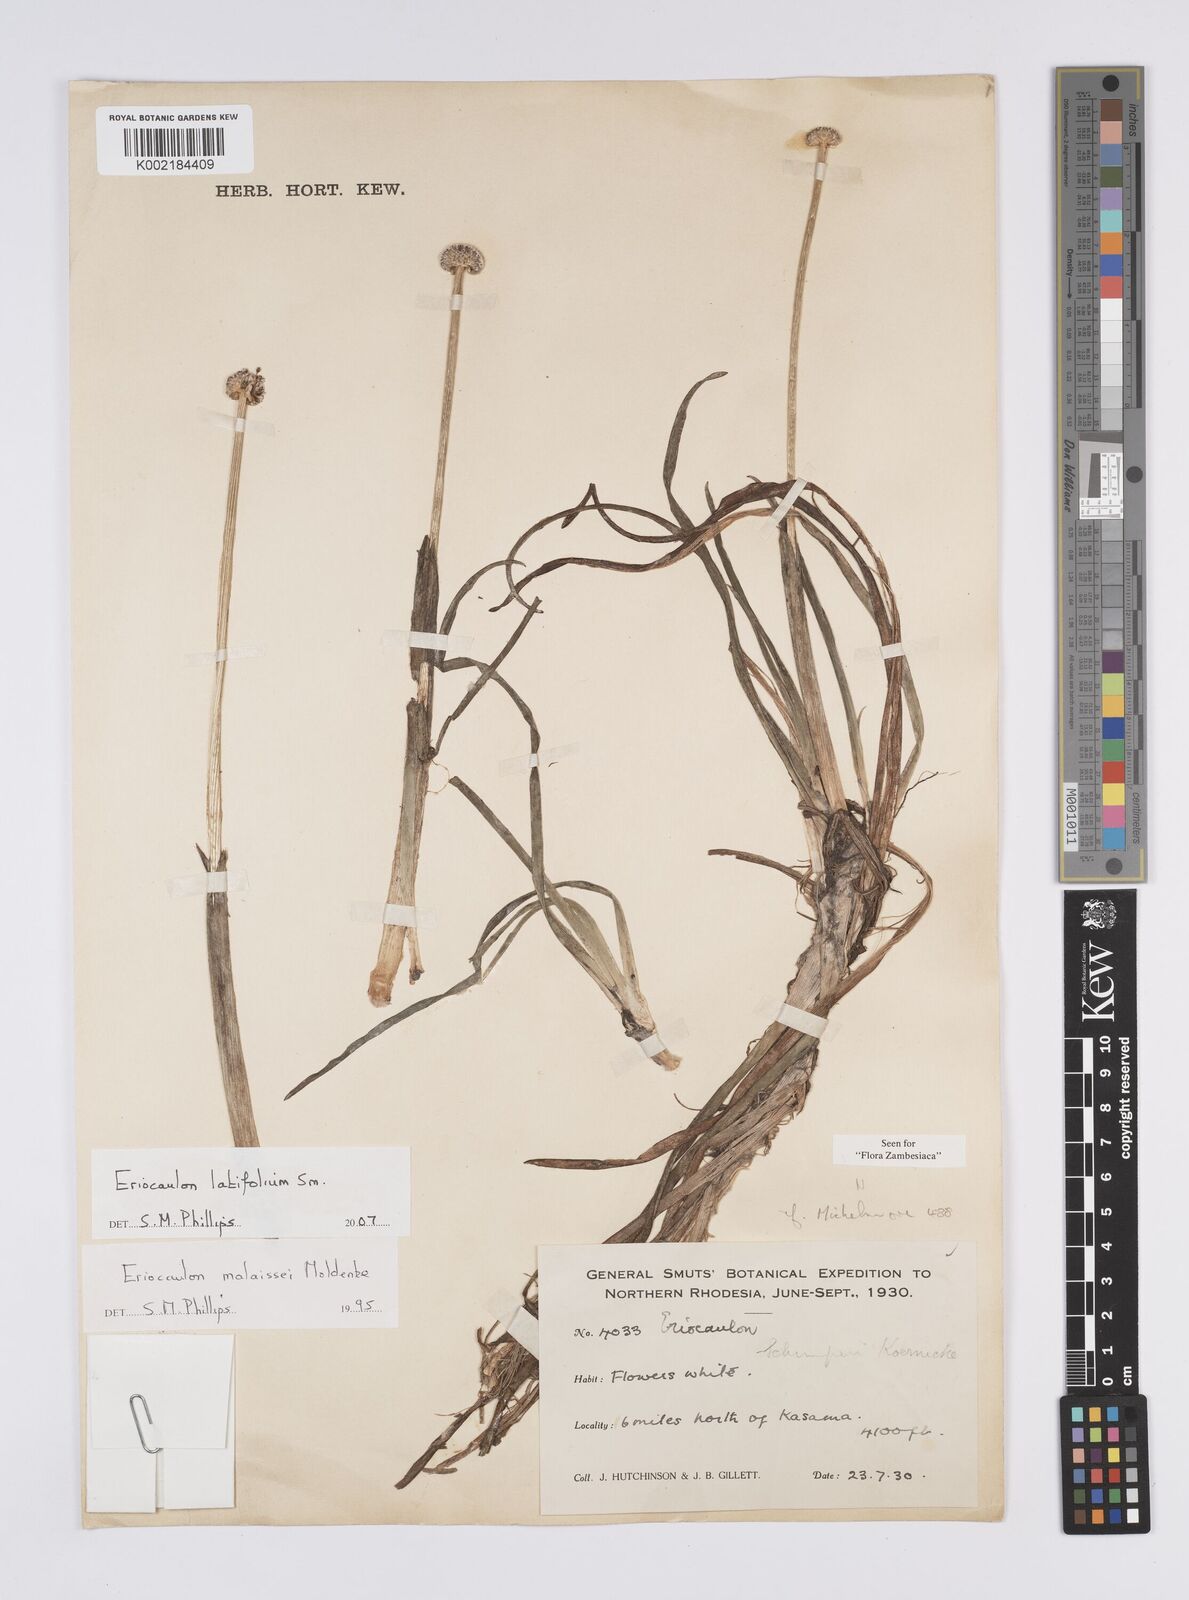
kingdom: Plantae
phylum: Tracheophyta
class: Liliopsida
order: Poales
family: Eriocaulaceae
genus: Eriocaulon
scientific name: Eriocaulon latifolium
